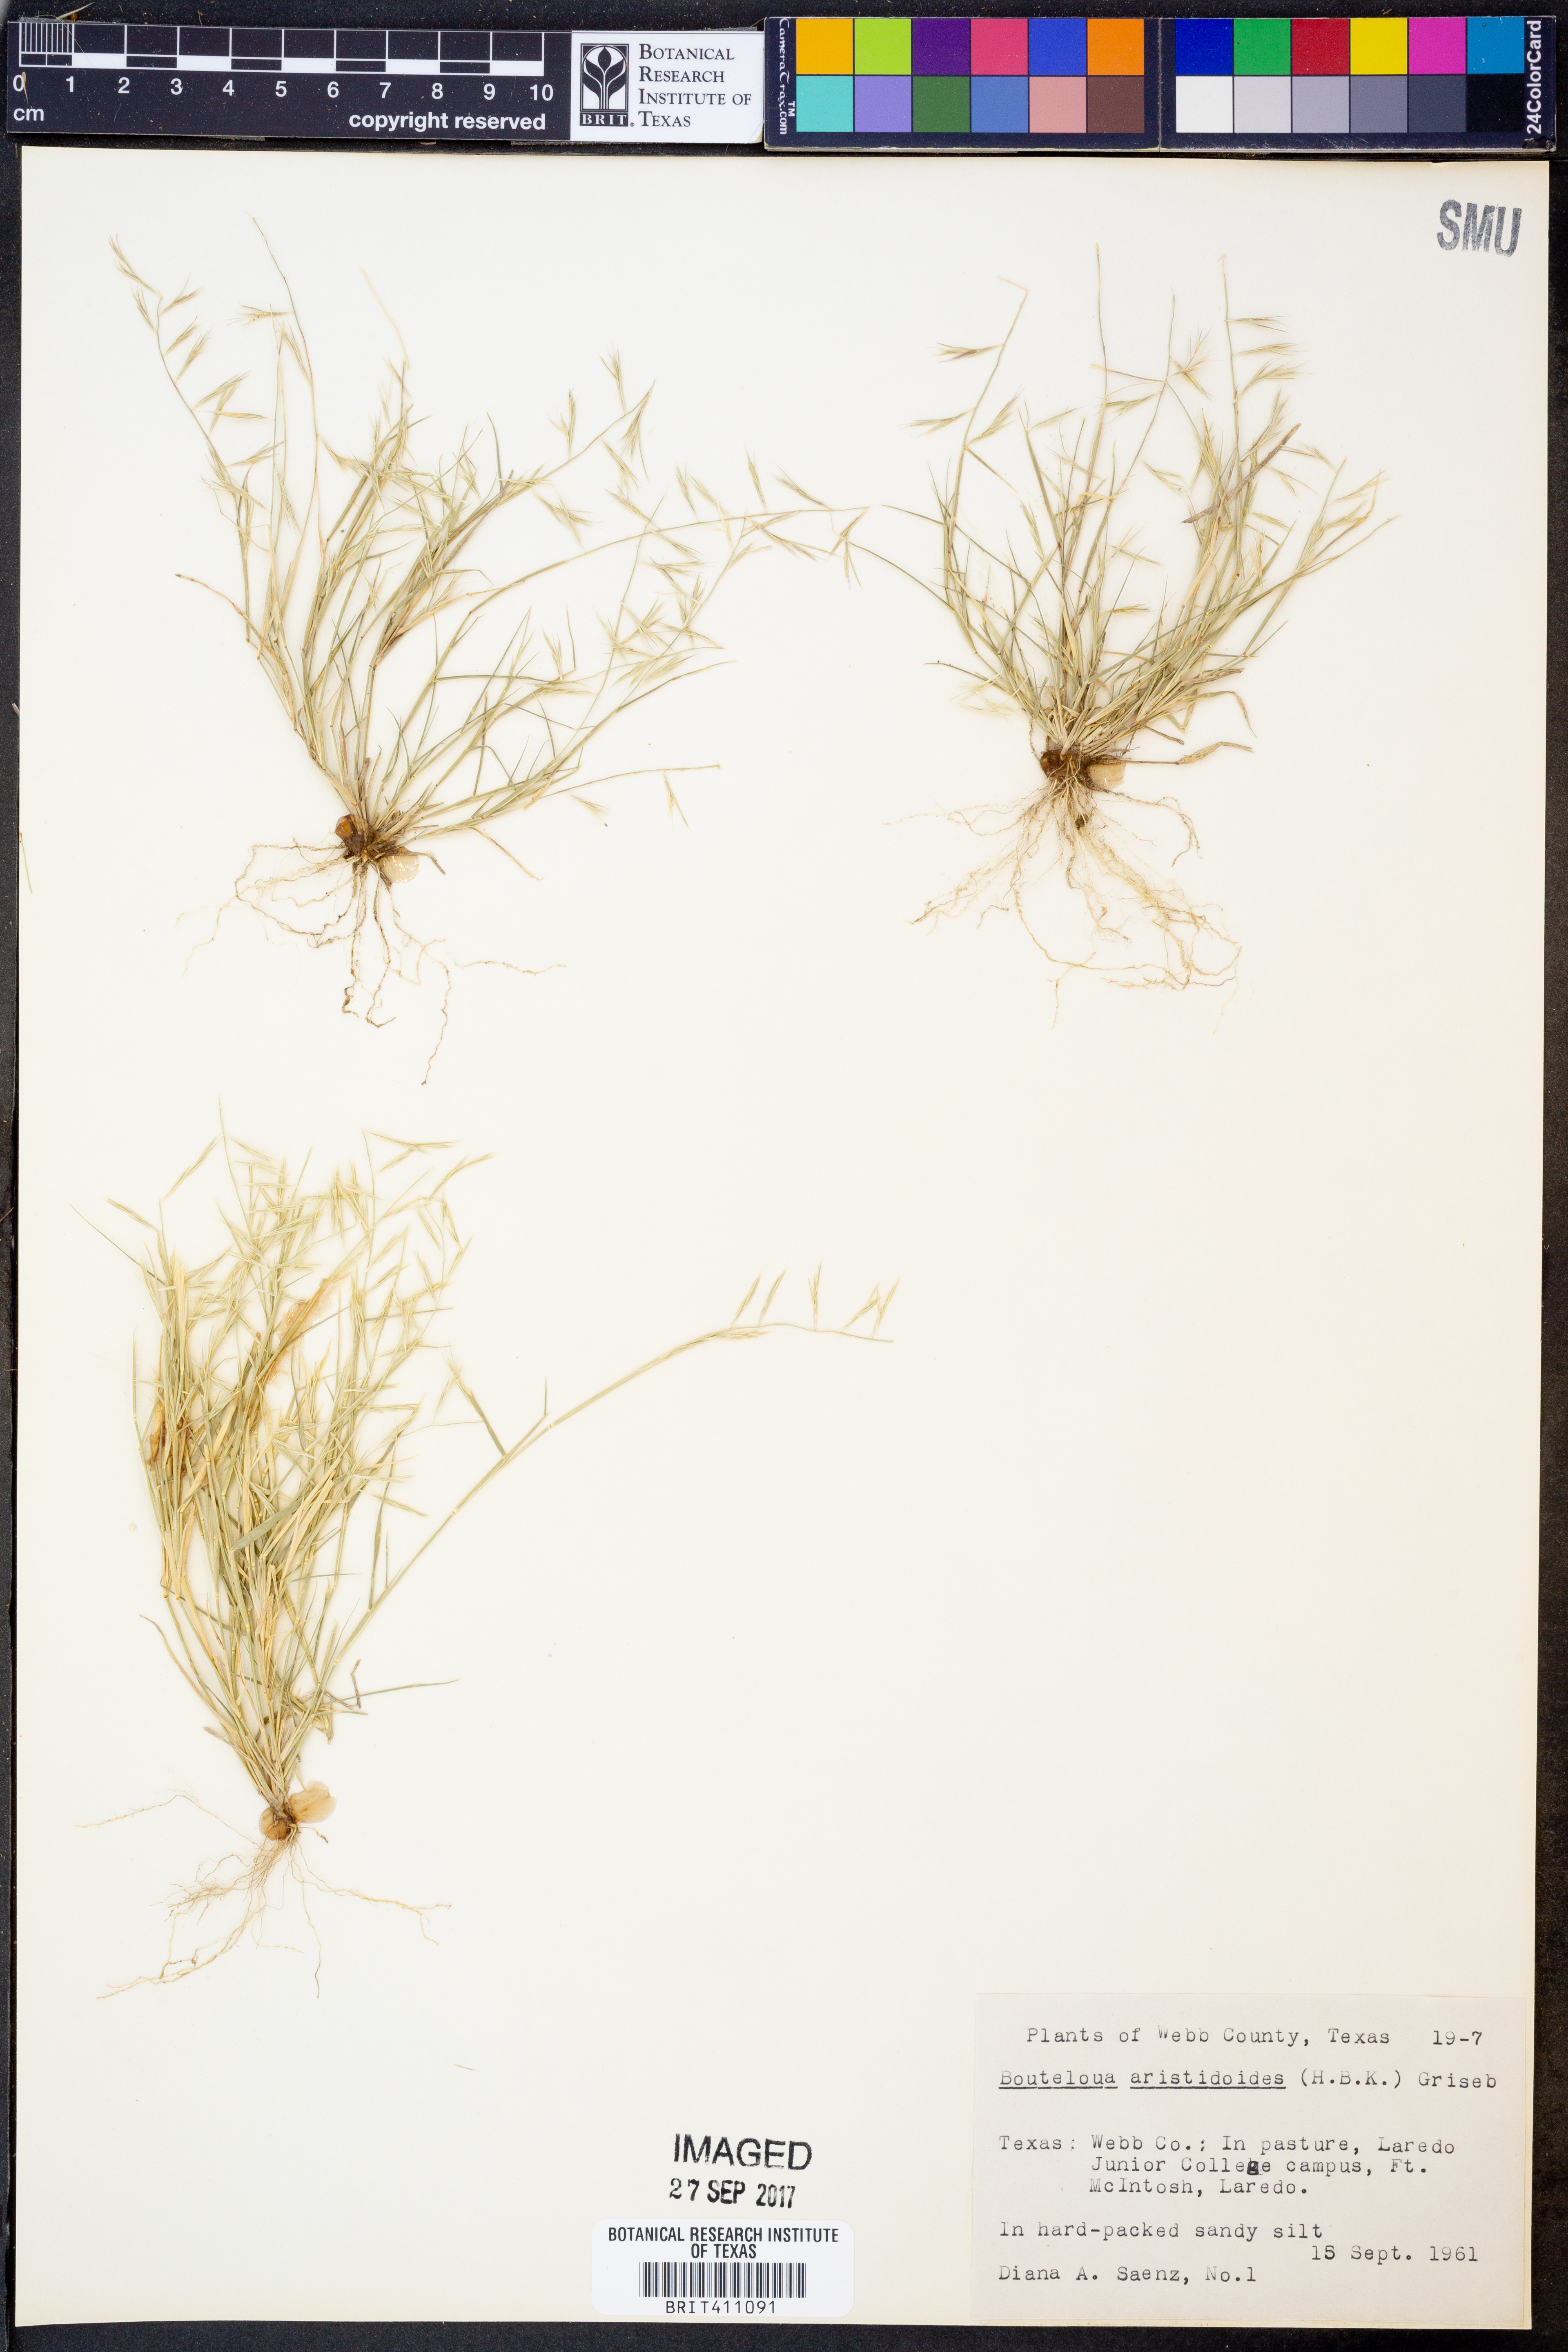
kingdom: Plantae
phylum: Tracheophyta
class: Liliopsida
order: Poales
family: Poaceae
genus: Bouteloua
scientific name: Bouteloua aristidoides
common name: Needle grama
